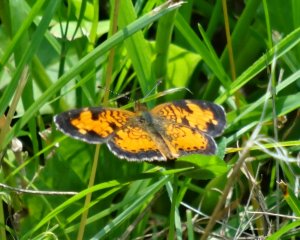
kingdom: Animalia
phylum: Arthropoda
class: Insecta
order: Lepidoptera
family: Nymphalidae
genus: Phyciodes
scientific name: Phyciodes tharos
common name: Northern Crescent
